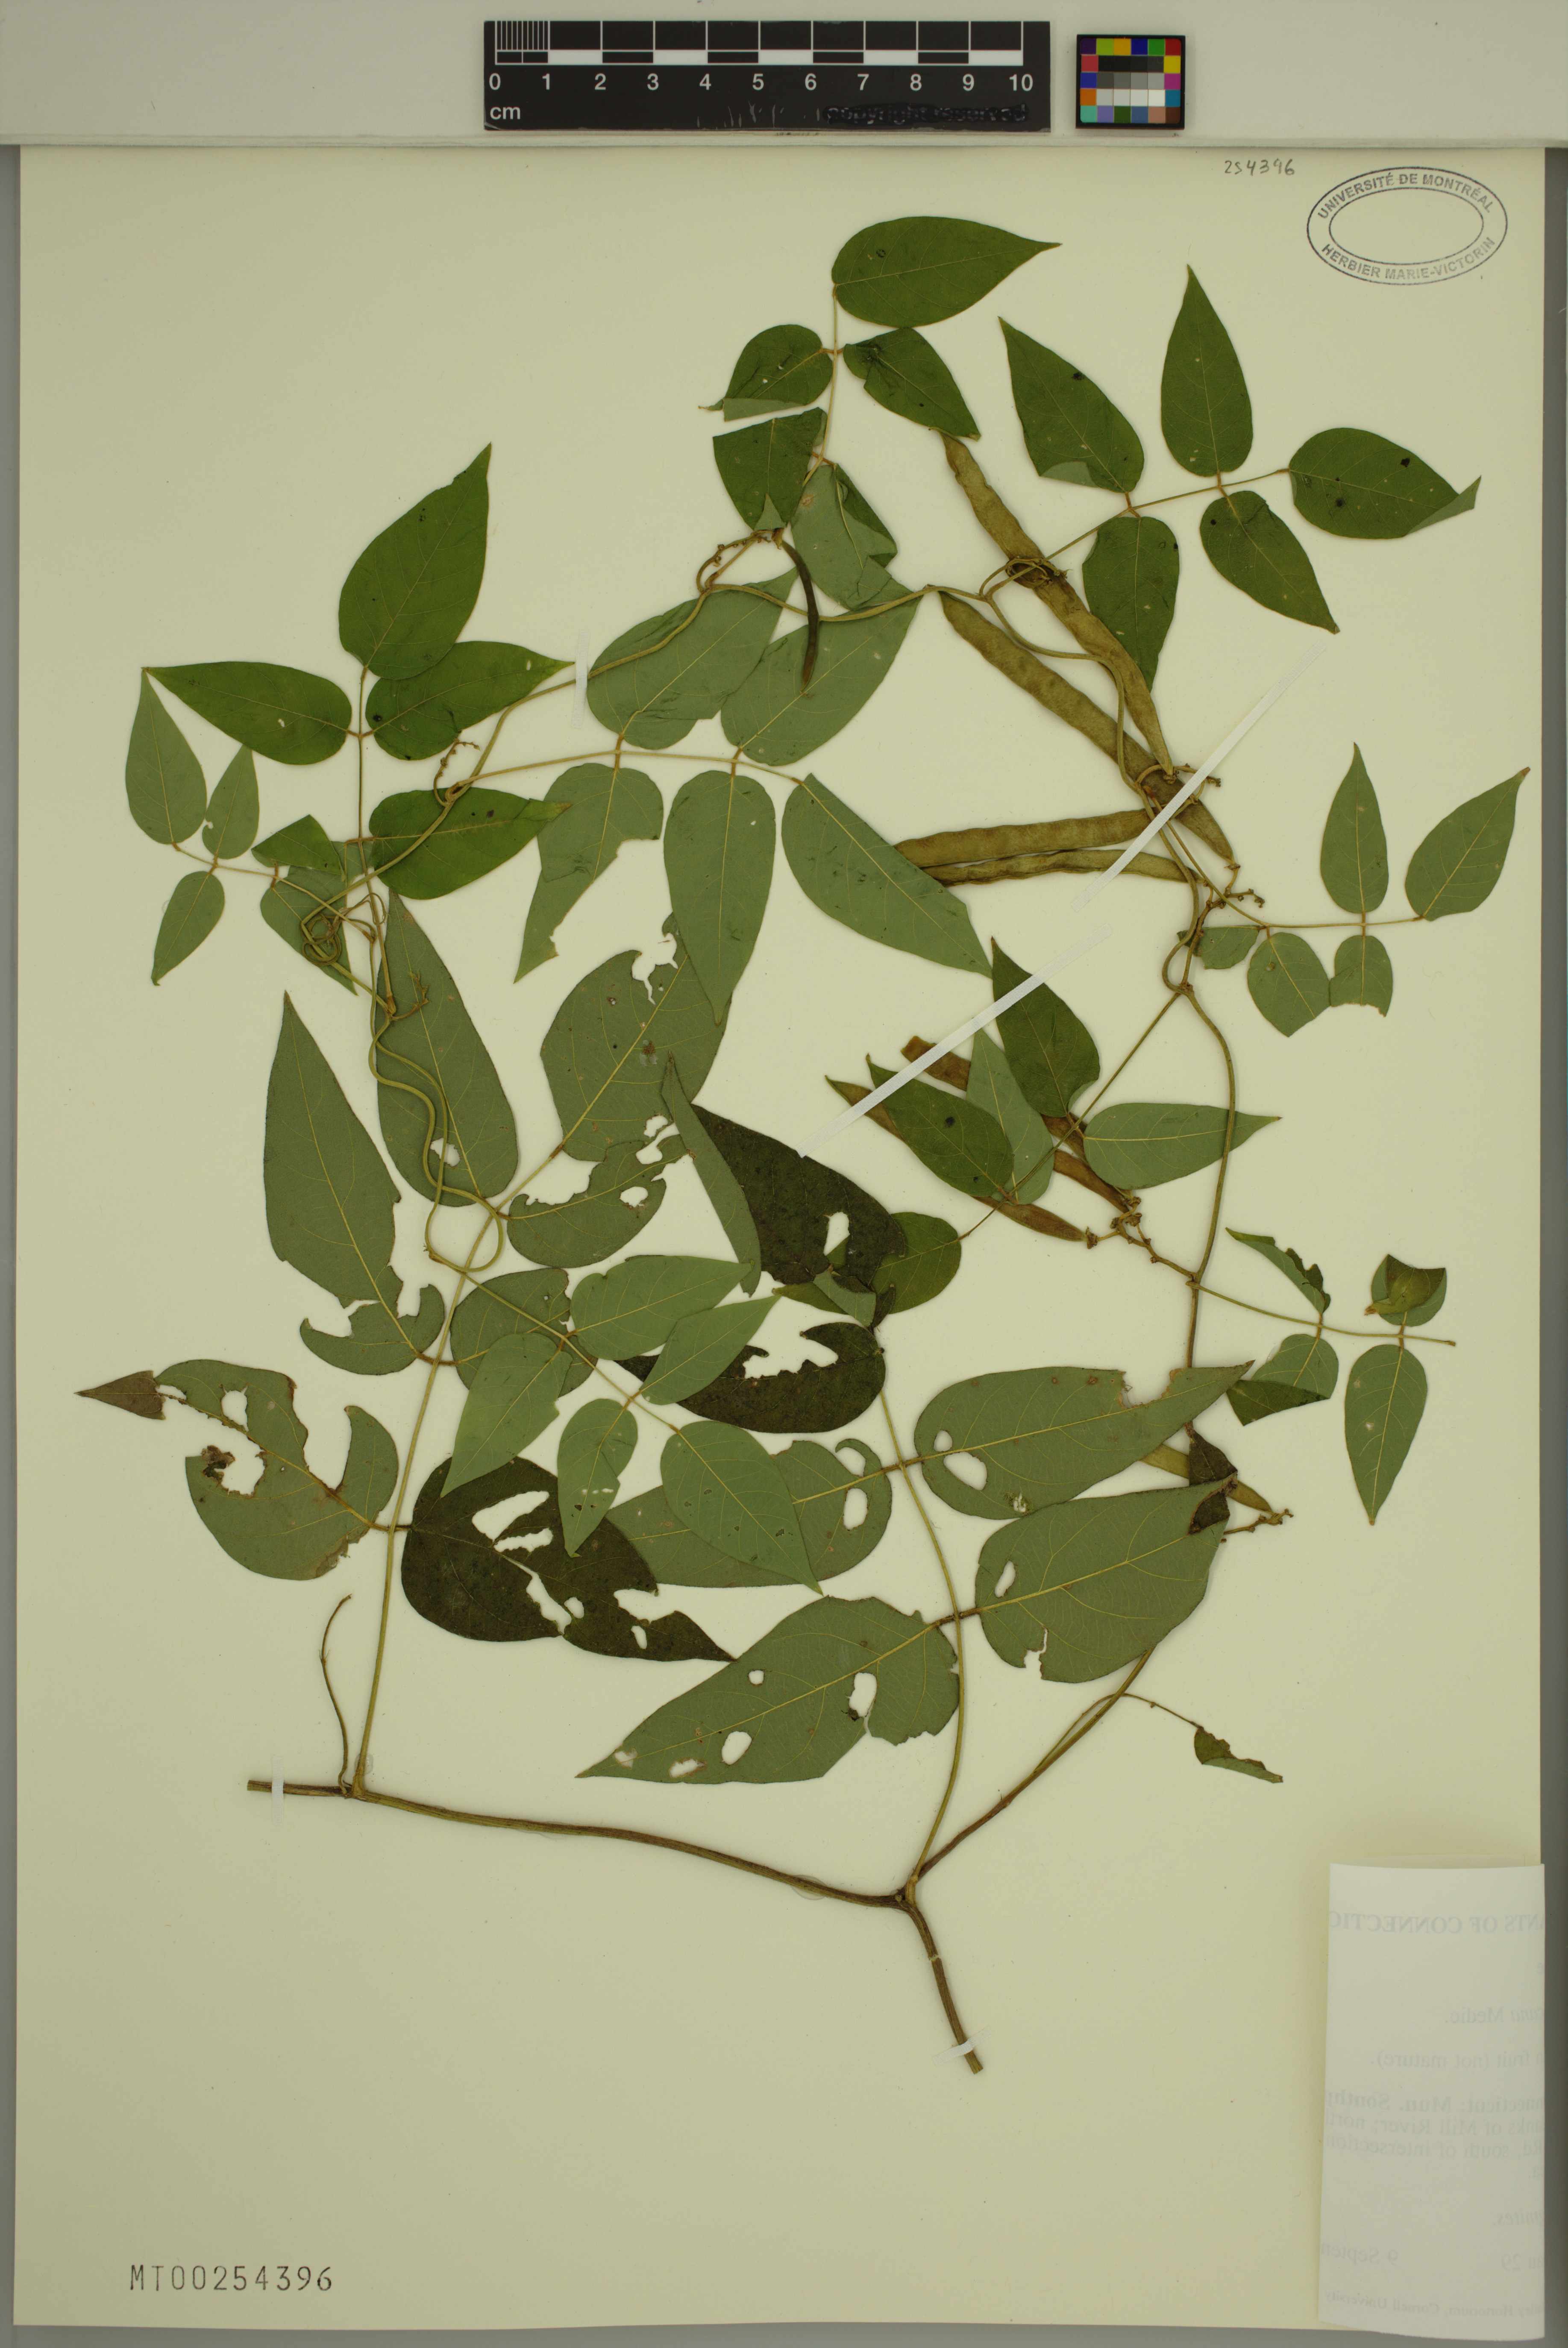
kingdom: Plantae
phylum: Tracheophyta
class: Magnoliopsida
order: Fabales
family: Fabaceae
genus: Apios
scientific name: Apios americana
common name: American potato-bean
